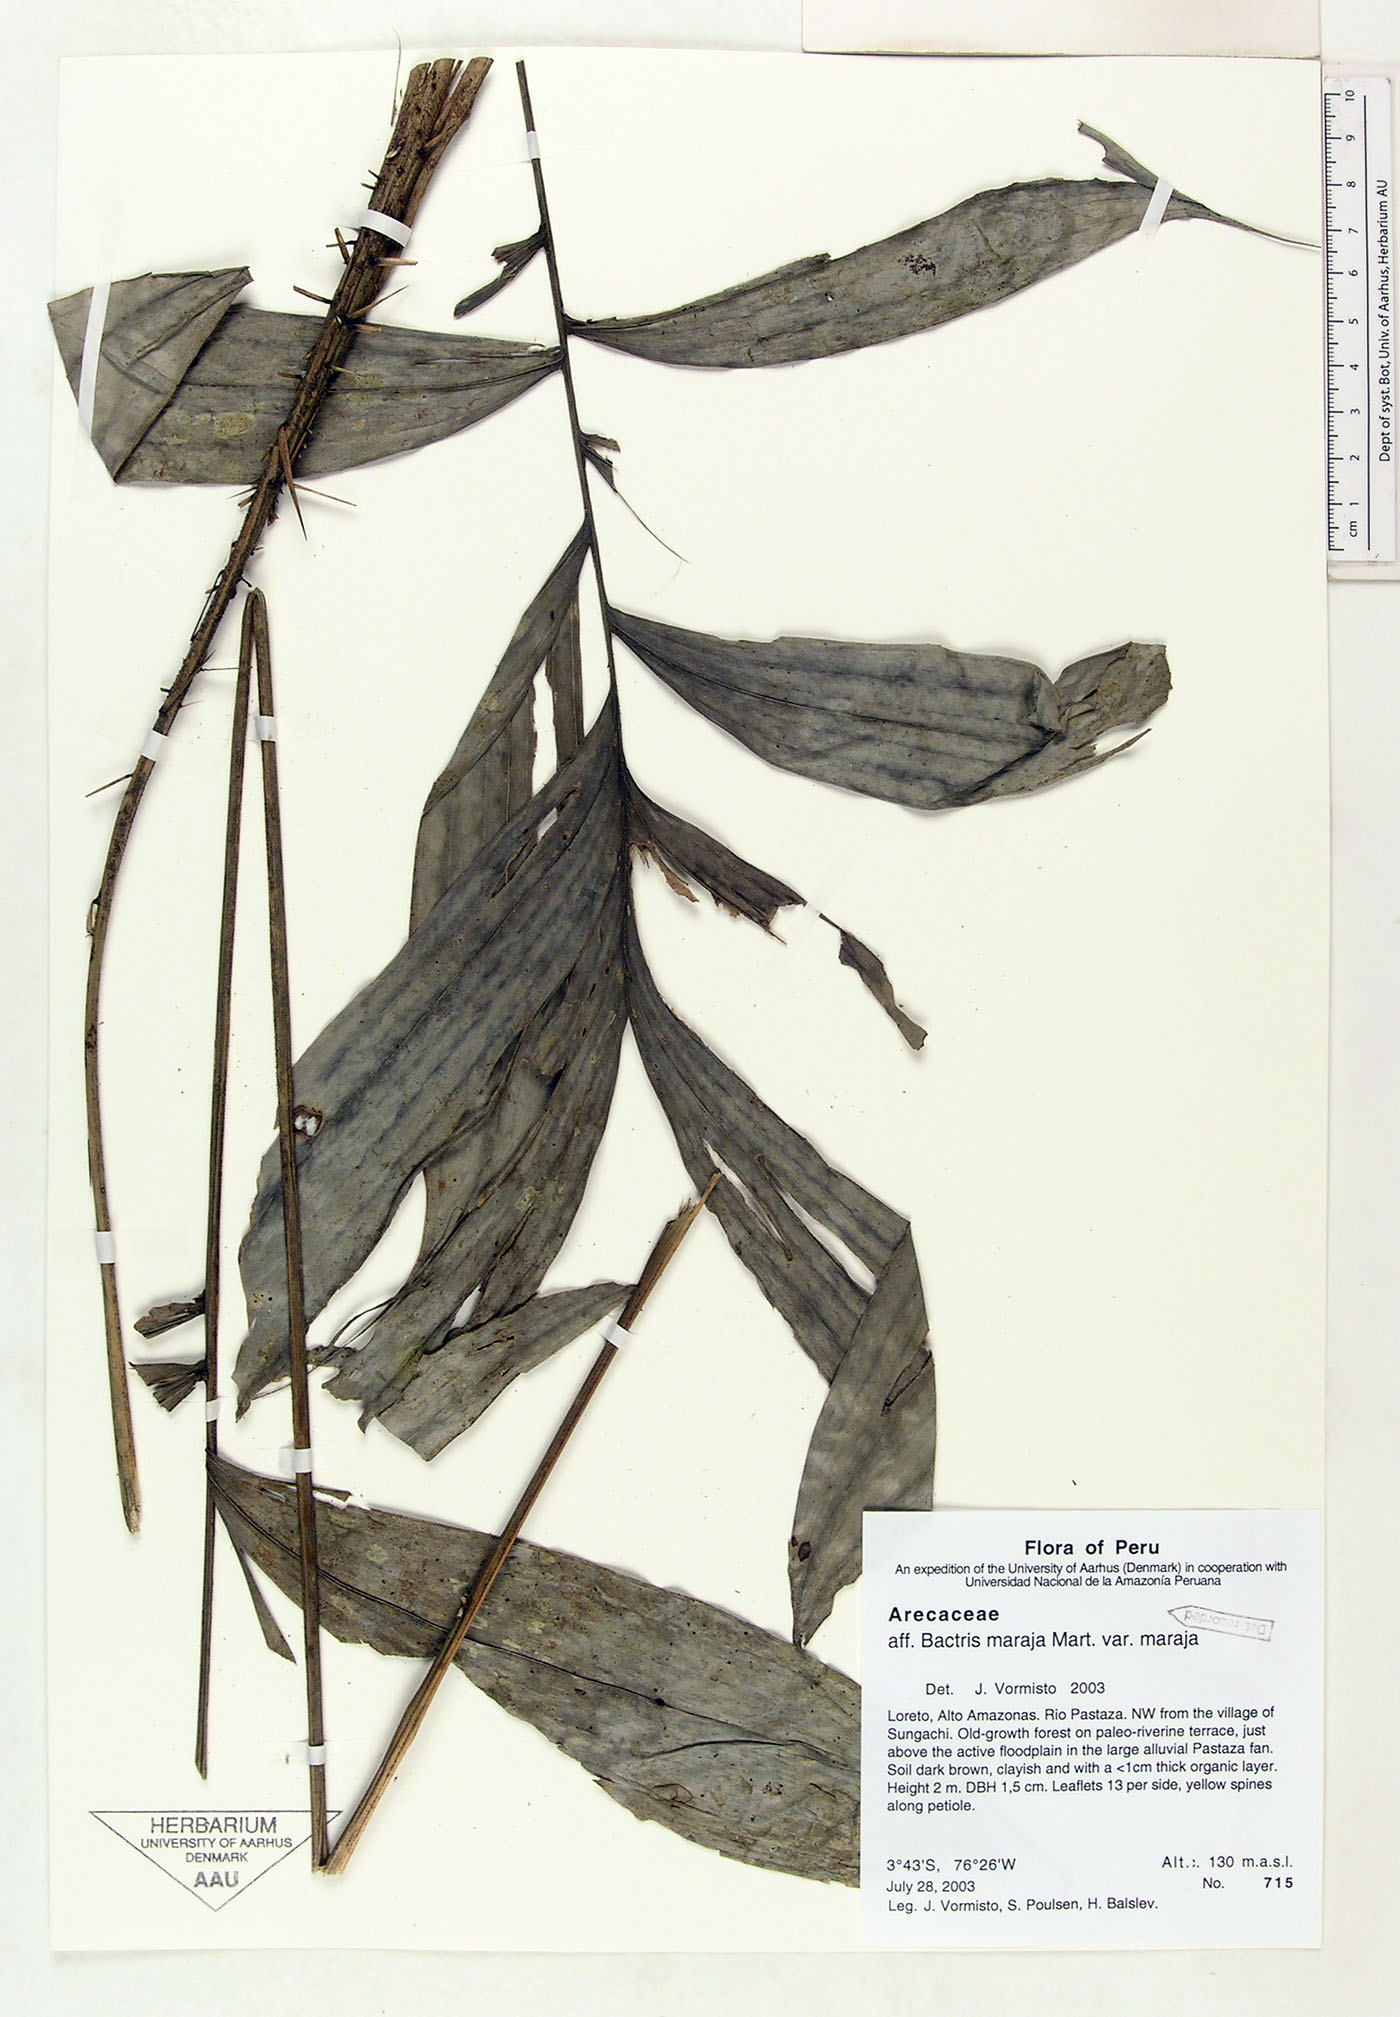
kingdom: Plantae
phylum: Tracheophyta
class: Liliopsida
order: Arecales
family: Arecaceae
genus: Bactris
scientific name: Bactris maraja
